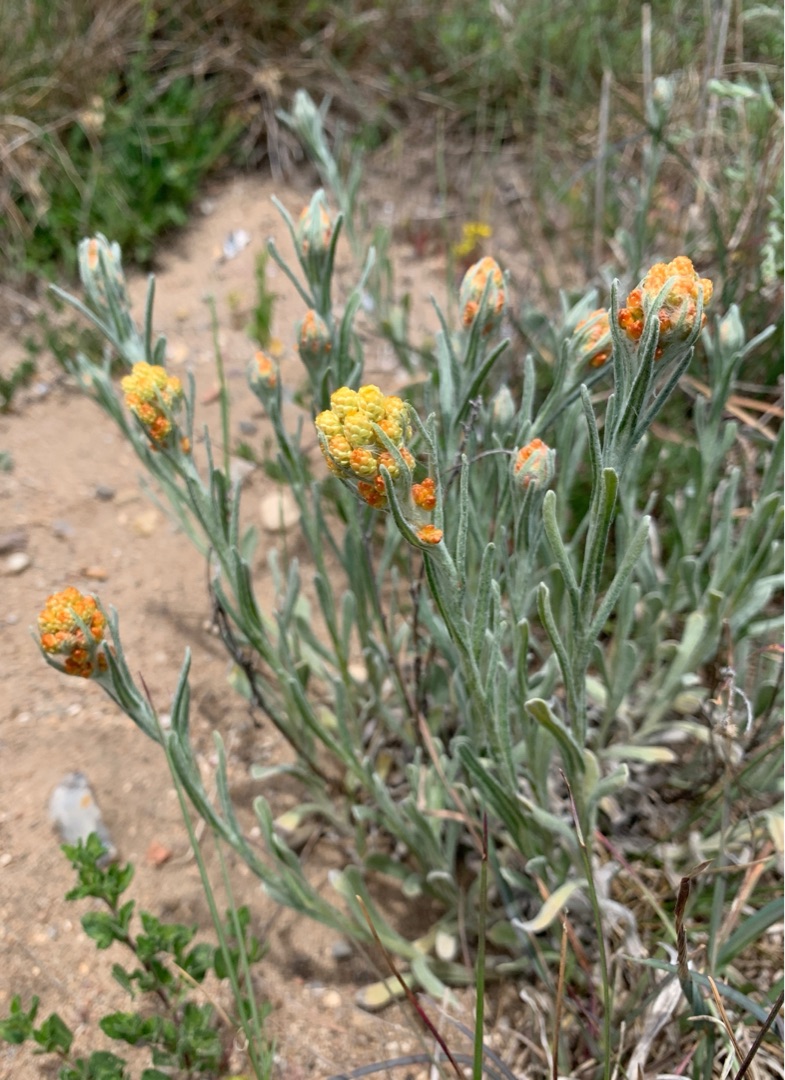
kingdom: Plantae
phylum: Tracheophyta
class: Magnoliopsida
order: Asterales
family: Asteraceae
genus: Helichrysum
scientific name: Helichrysum arenarium
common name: Gul evighedsblomst
